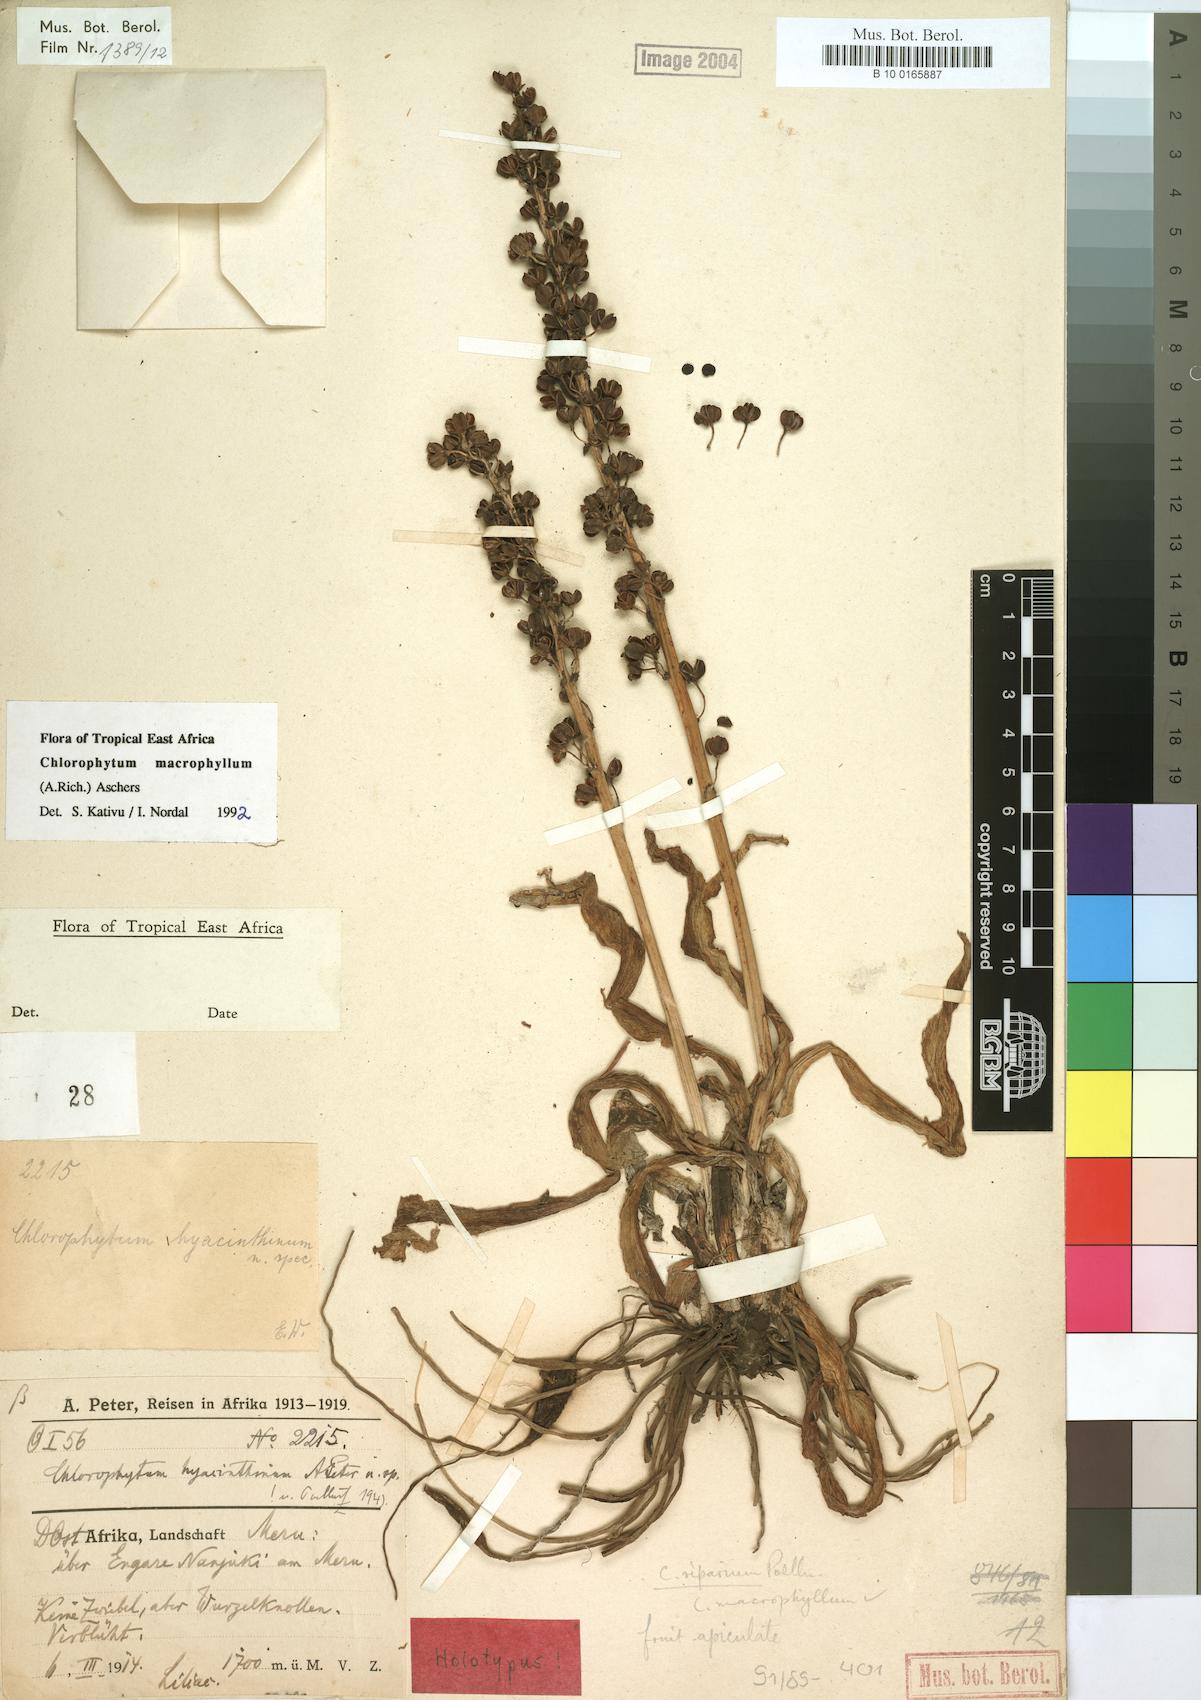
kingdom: Plantae
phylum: Tracheophyta
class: Liliopsida
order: Asparagales
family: Asparagaceae
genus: Chlorophytum
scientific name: Chlorophytum macrophyllum
